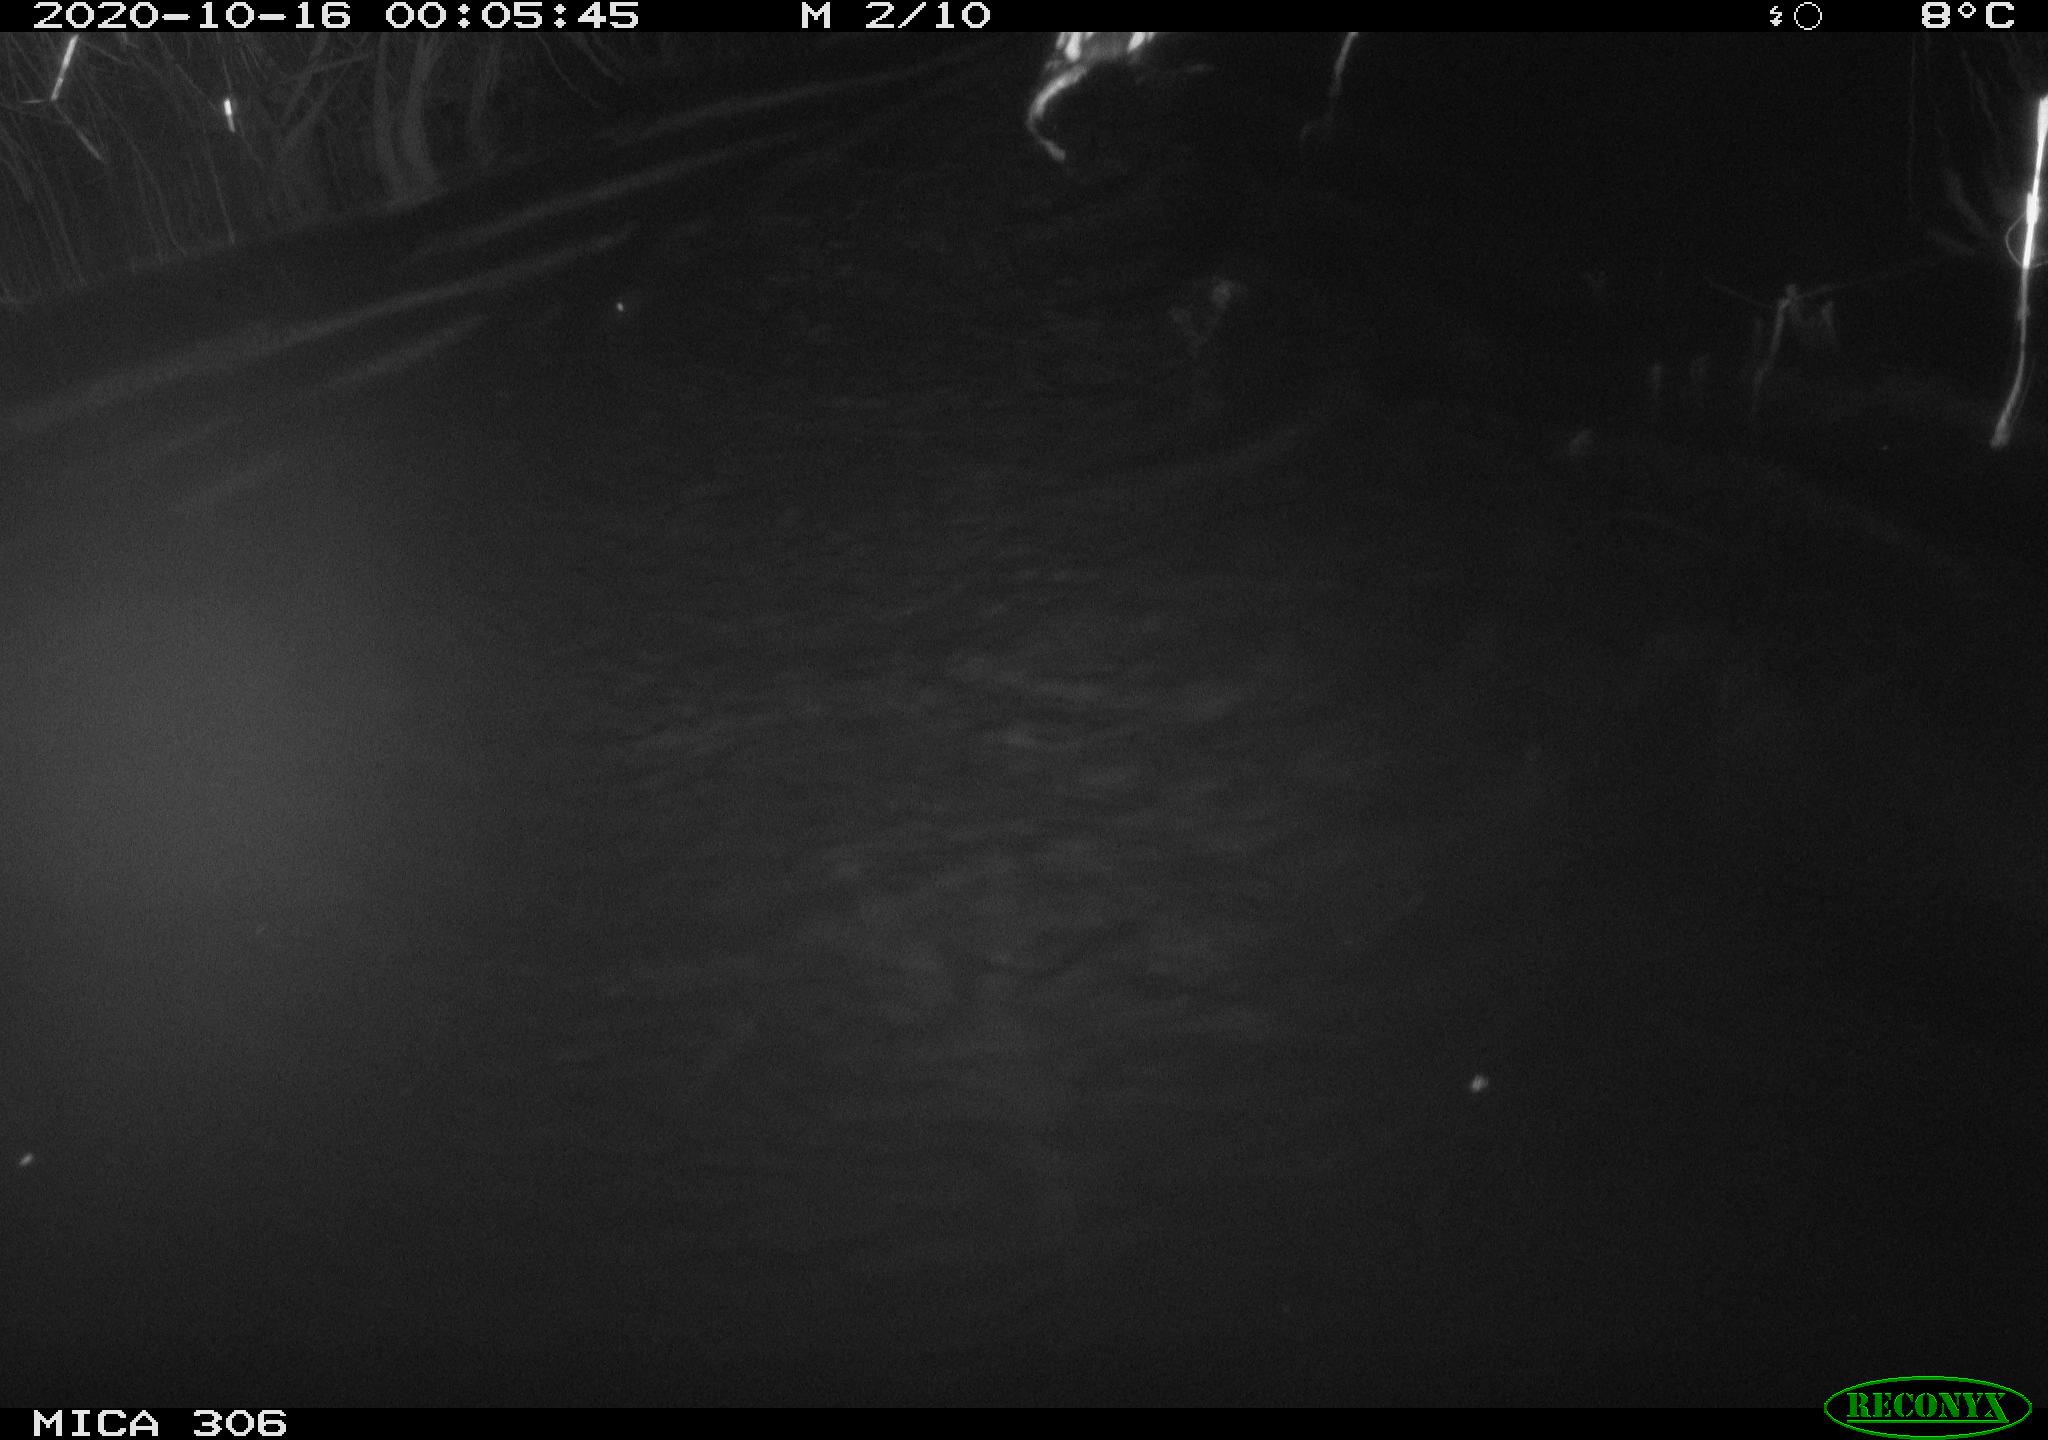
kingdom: Animalia
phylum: Chordata
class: Mammalia
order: Rodentia
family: Cricetidae
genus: Ondatra
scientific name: Ondatra zibethicus
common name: Muskrat
